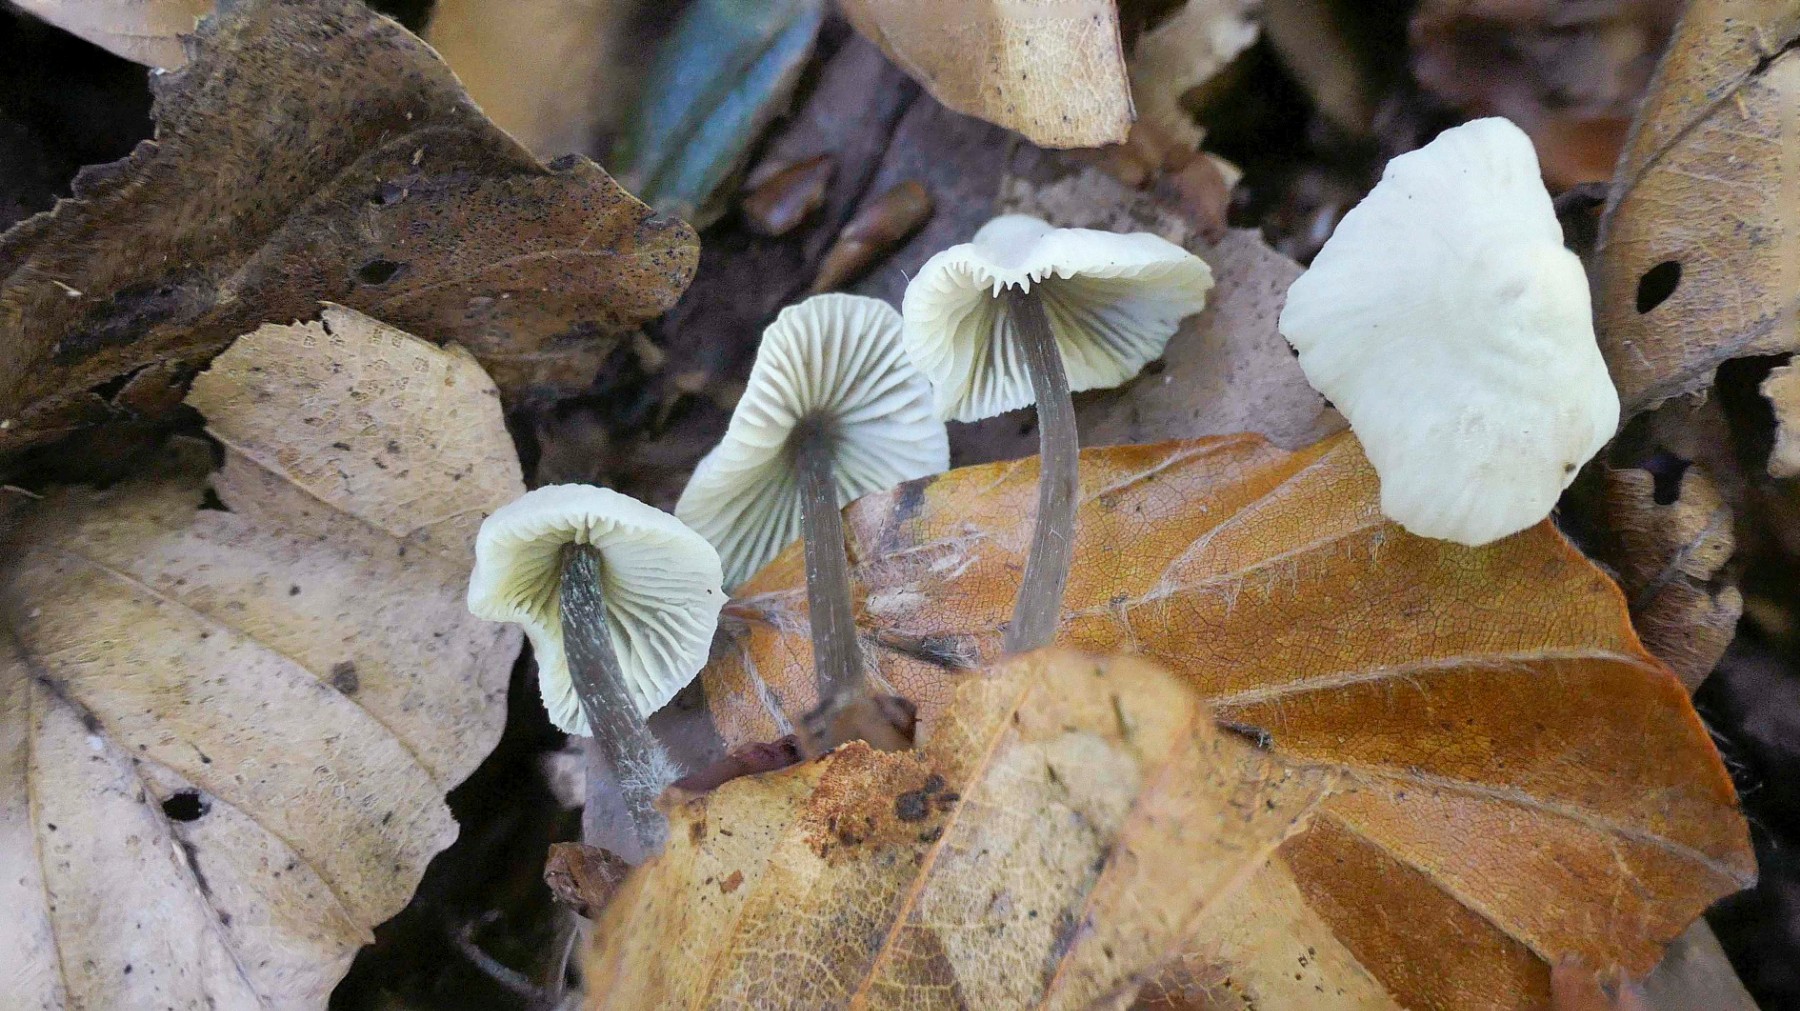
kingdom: Fungi
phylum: Basidiomycota
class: Agaricomycetes
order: Agaricales
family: Mycenaceae
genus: Mycena
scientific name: Mycena flavescens
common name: grågul huesvamp
